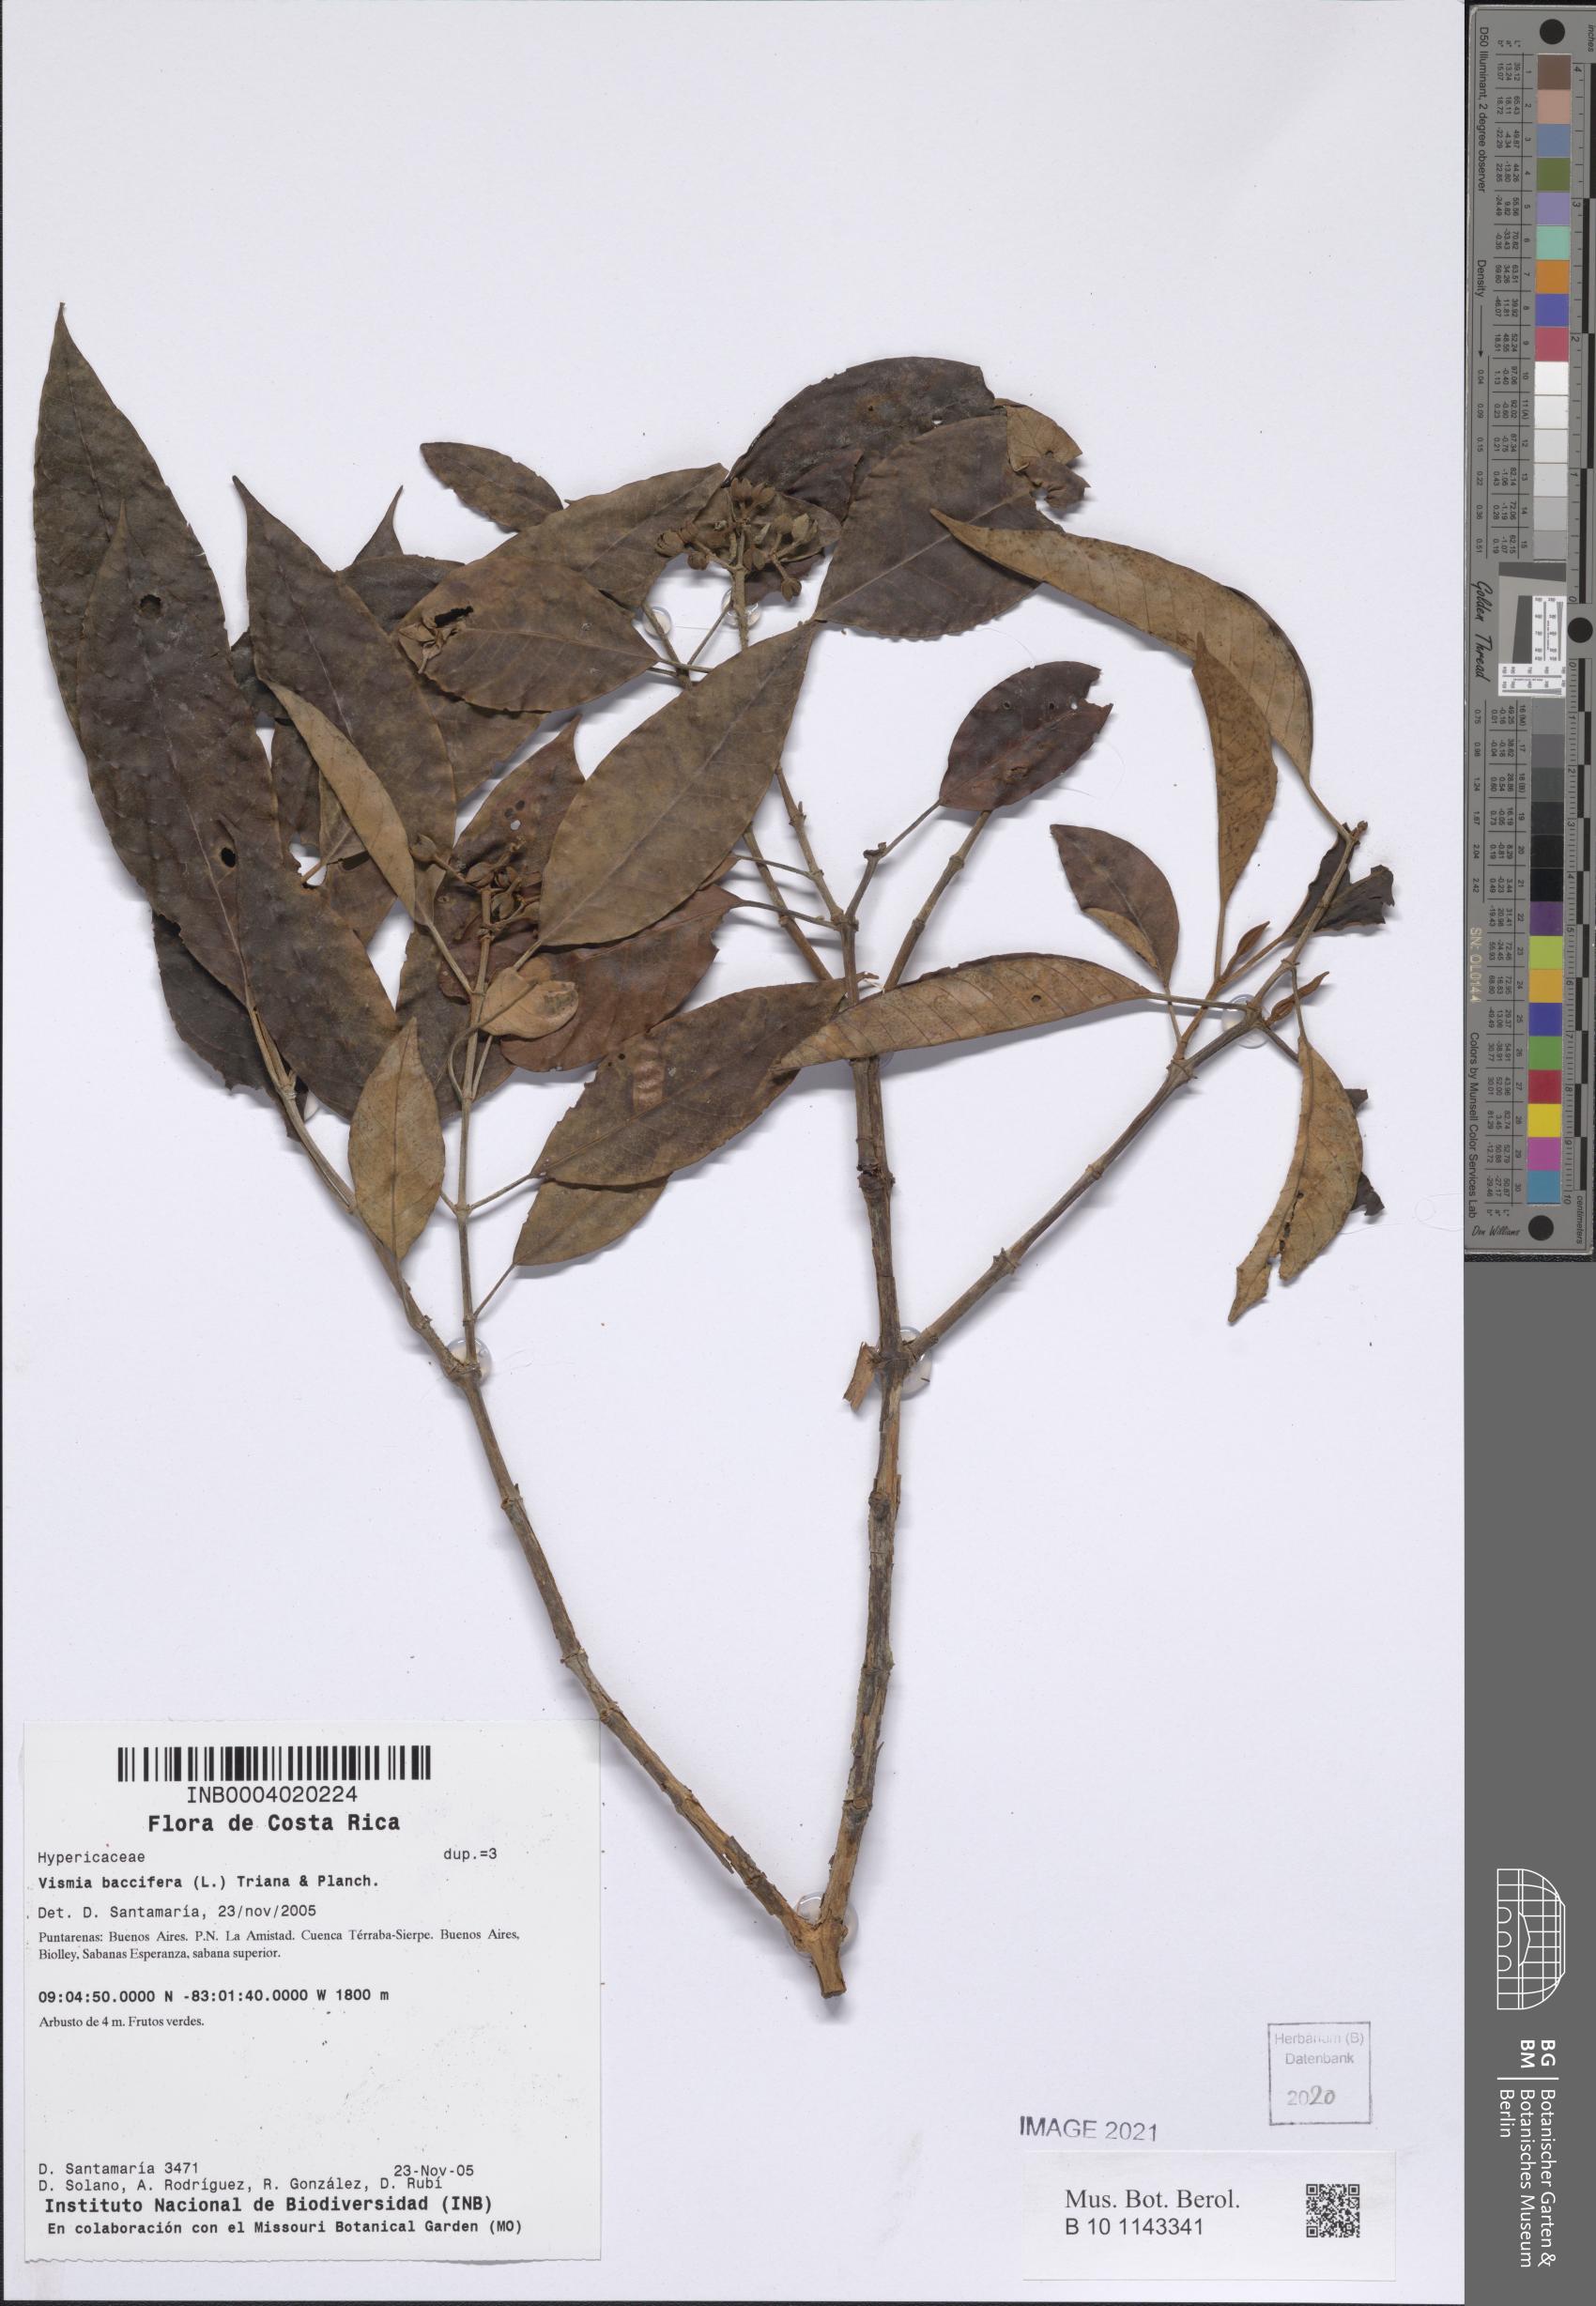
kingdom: Plantae
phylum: Tracheophyta
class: Magnoliopsida
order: Malpighiales
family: Hypericaceae
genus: Vismia
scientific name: Vismia baccifera
